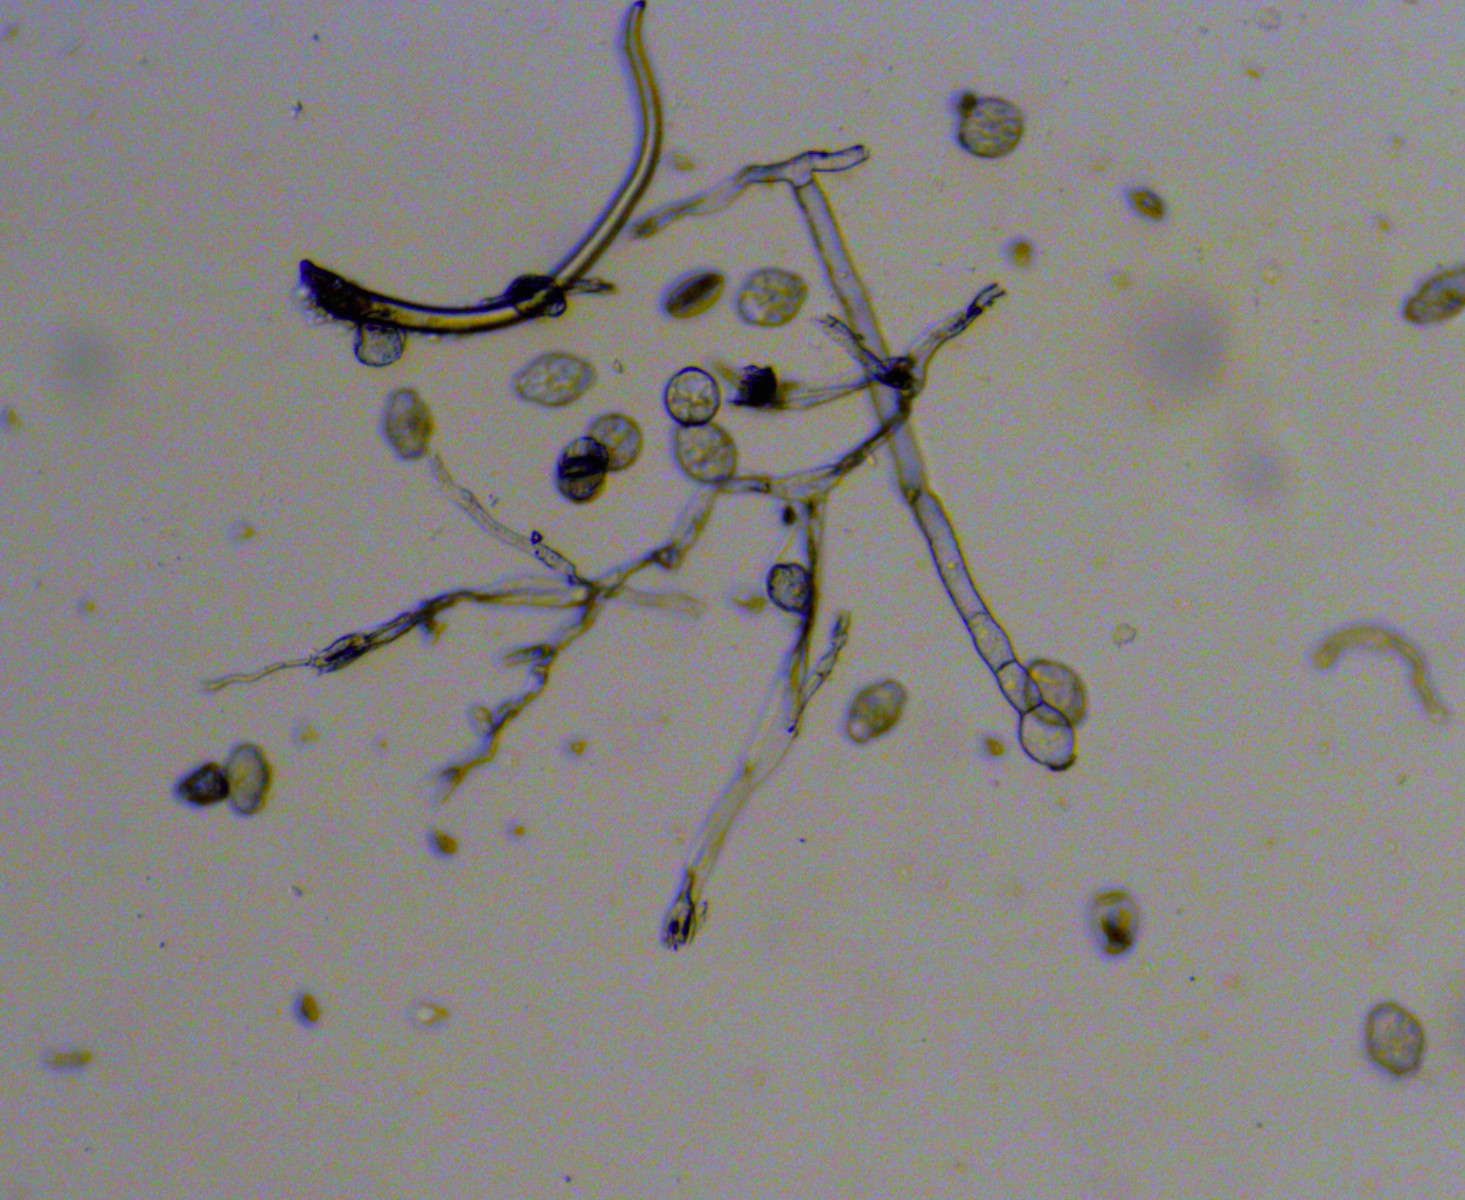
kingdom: Fungi
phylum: Ascomycota
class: Leotiomycetes
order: Helotiales
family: Erysiphaceae
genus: Golovinomyces
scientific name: Golovinomyces depressus
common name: Burdock mildew
